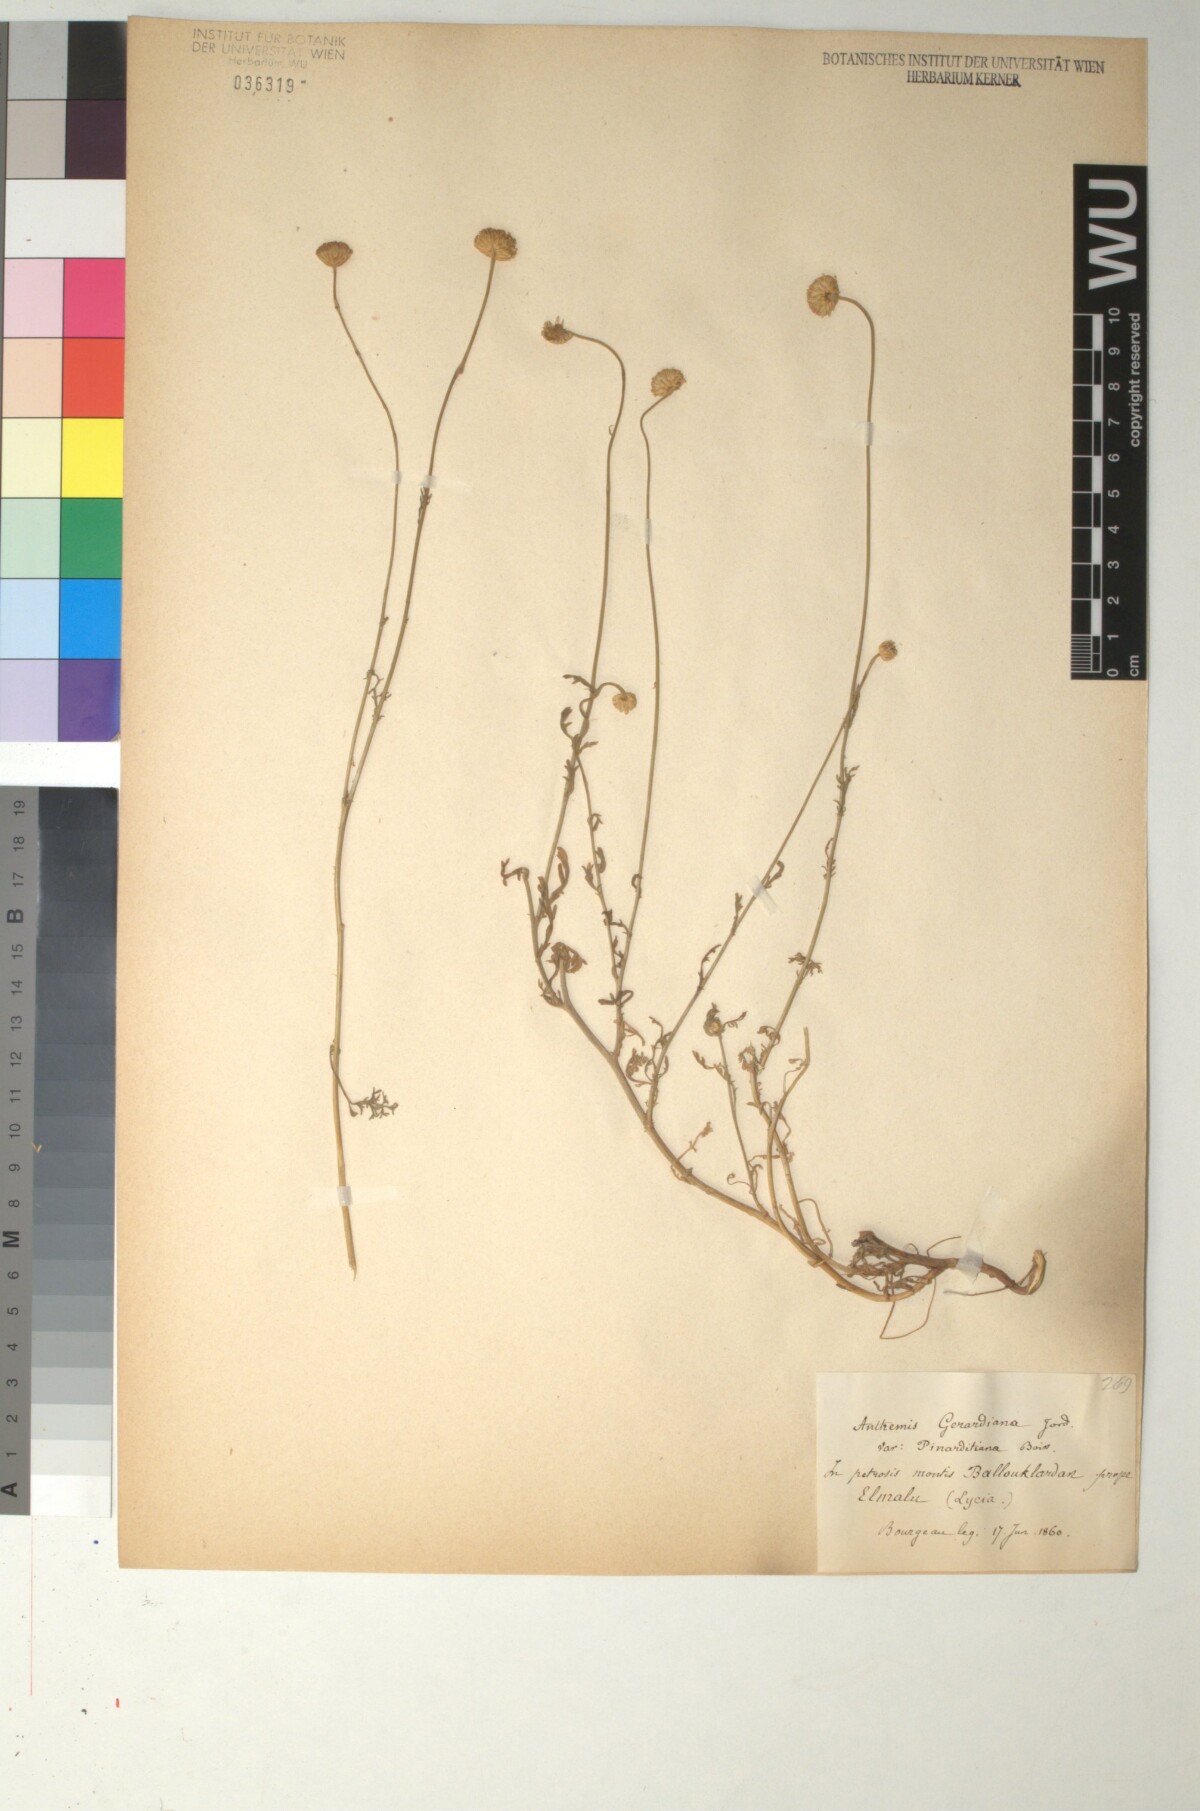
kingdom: Plantae
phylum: Tracheophyta
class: Magnoliopsida
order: Asterales
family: Asteraceae
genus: Anthemis
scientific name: Anthemis cretica
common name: Mountain dog-daisy
